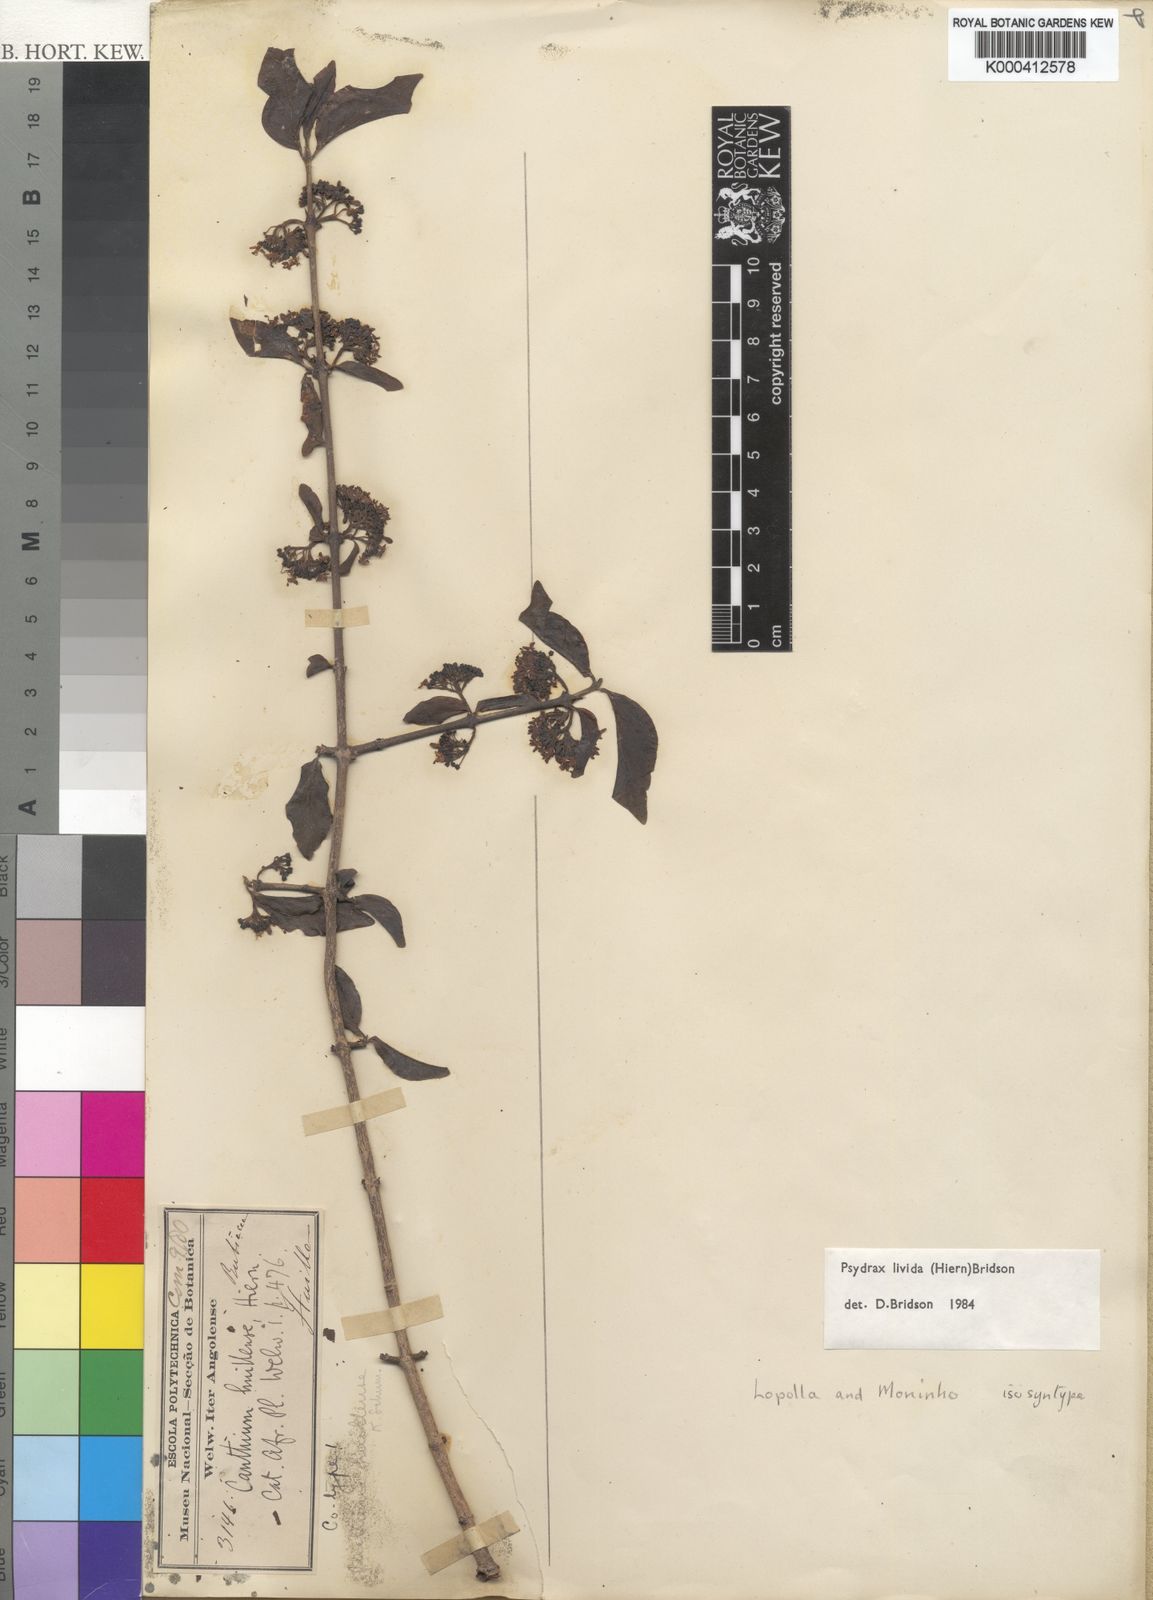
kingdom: Plantae
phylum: Tracheophyta
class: Magnoliopsida
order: Gentianales
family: Rubiaceae
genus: Psydrax
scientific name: Psydrax lividus
